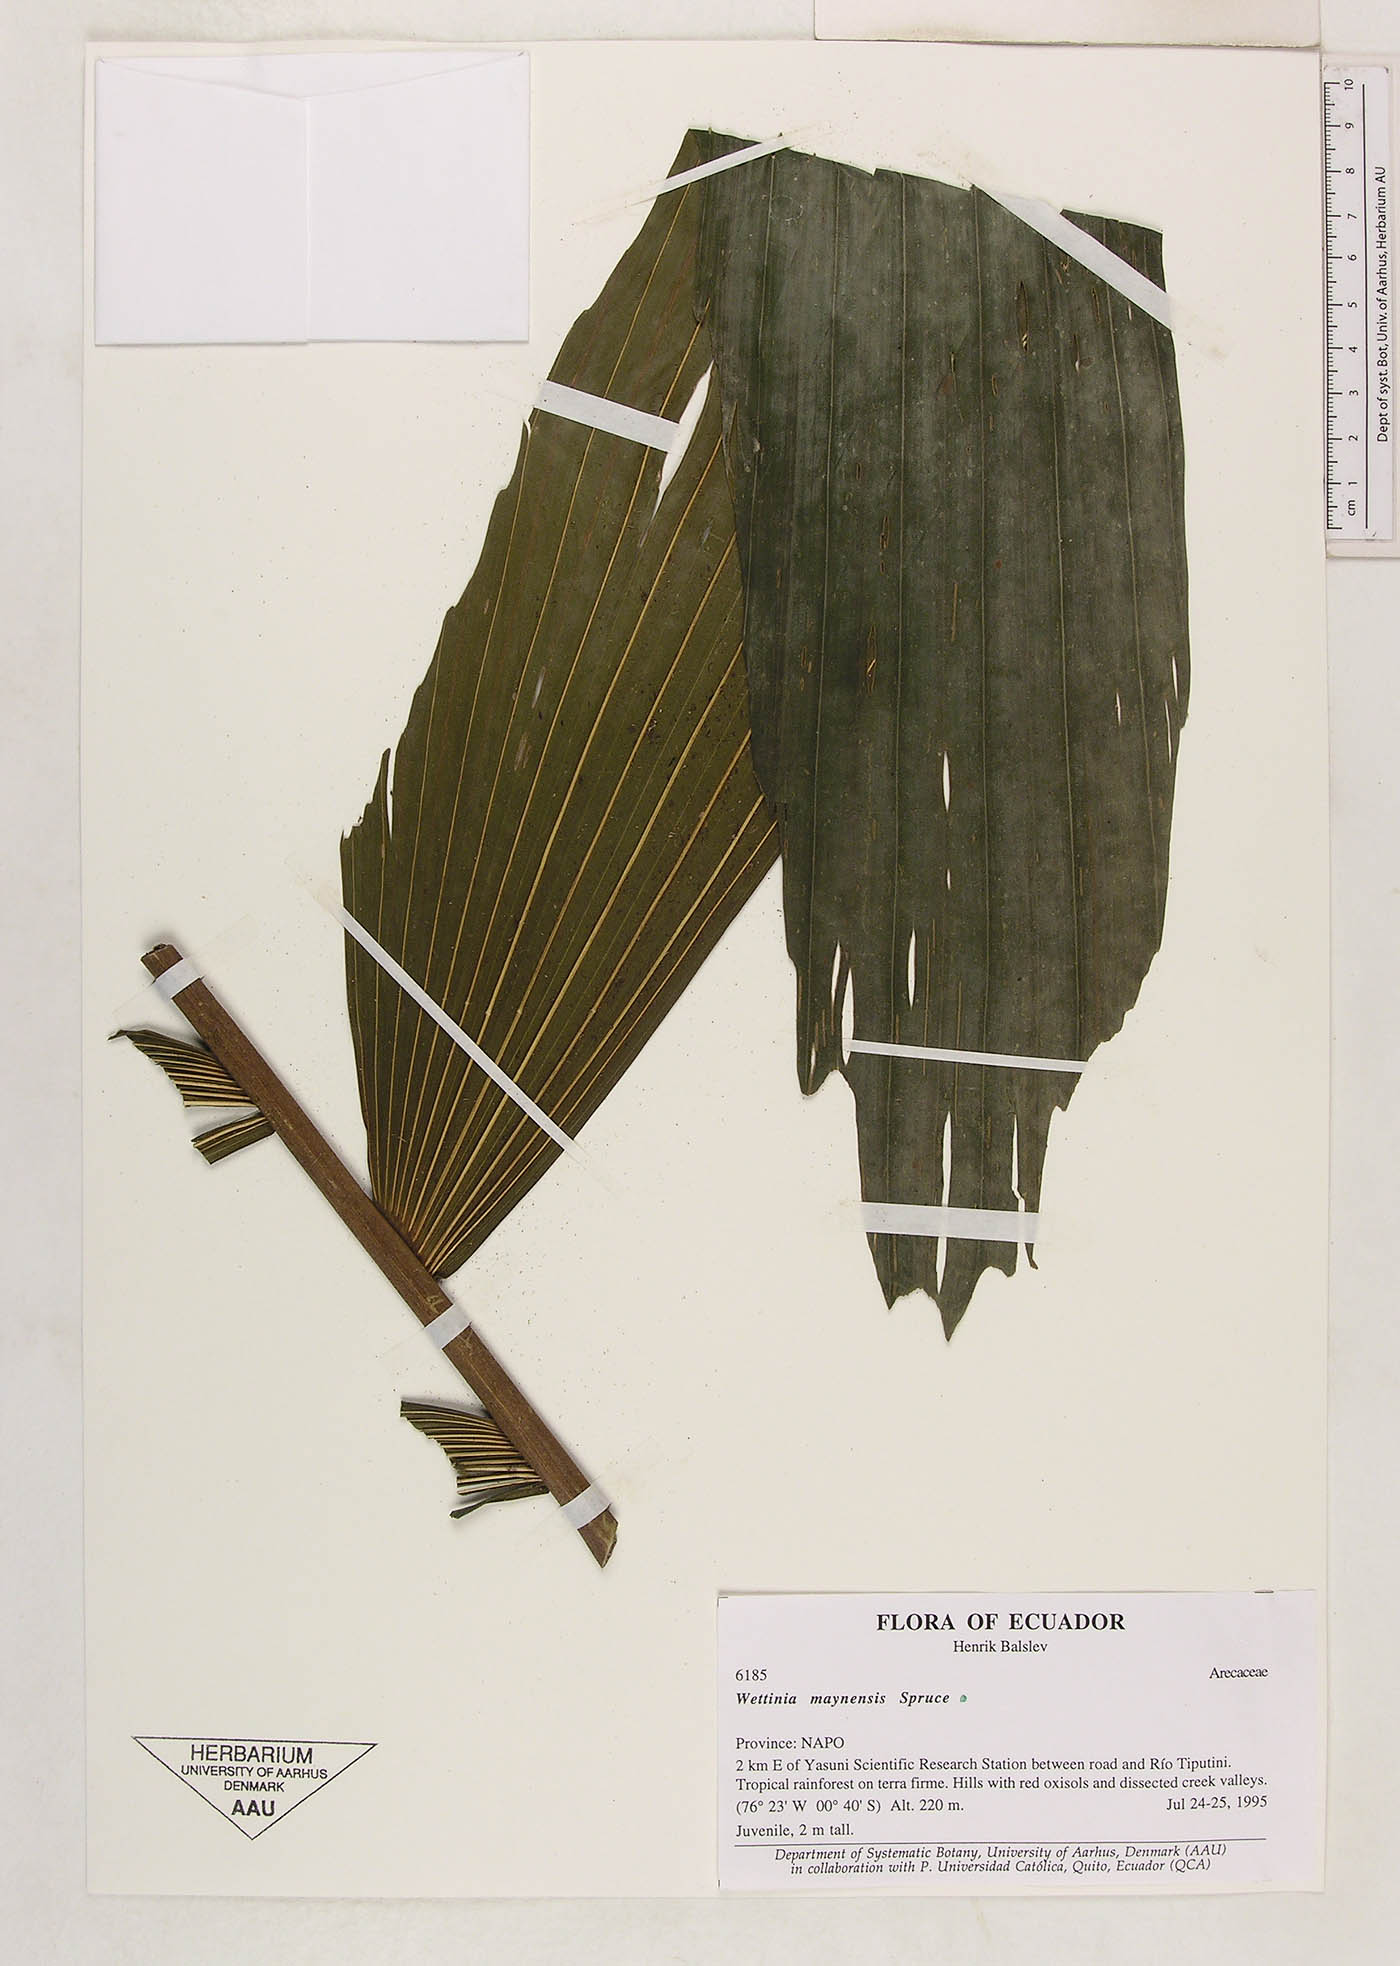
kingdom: Plantae
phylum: Tracheophyta
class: Liliopsida
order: Arecales
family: Arecaceae
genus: Wettinia
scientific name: Wettinia maynensis
